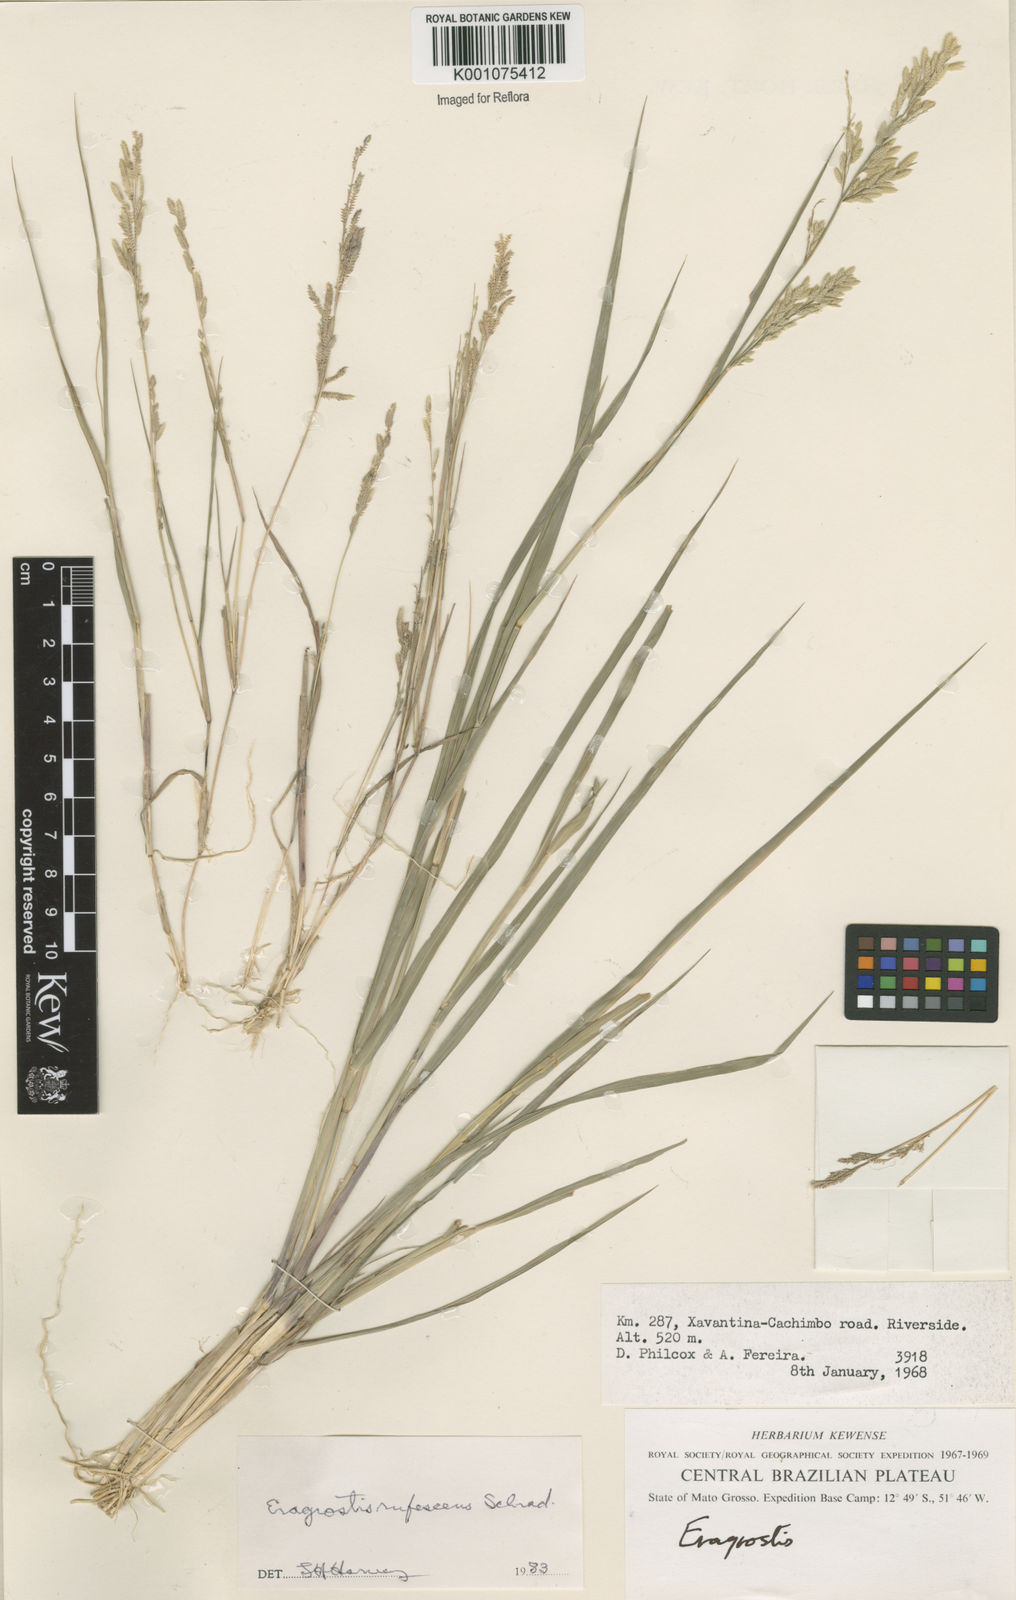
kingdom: Plantae
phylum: Tracheophyta
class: Liliopsida
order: Poales
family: Poaceae
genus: Eragrostis
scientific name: Eragrostis rufescens
